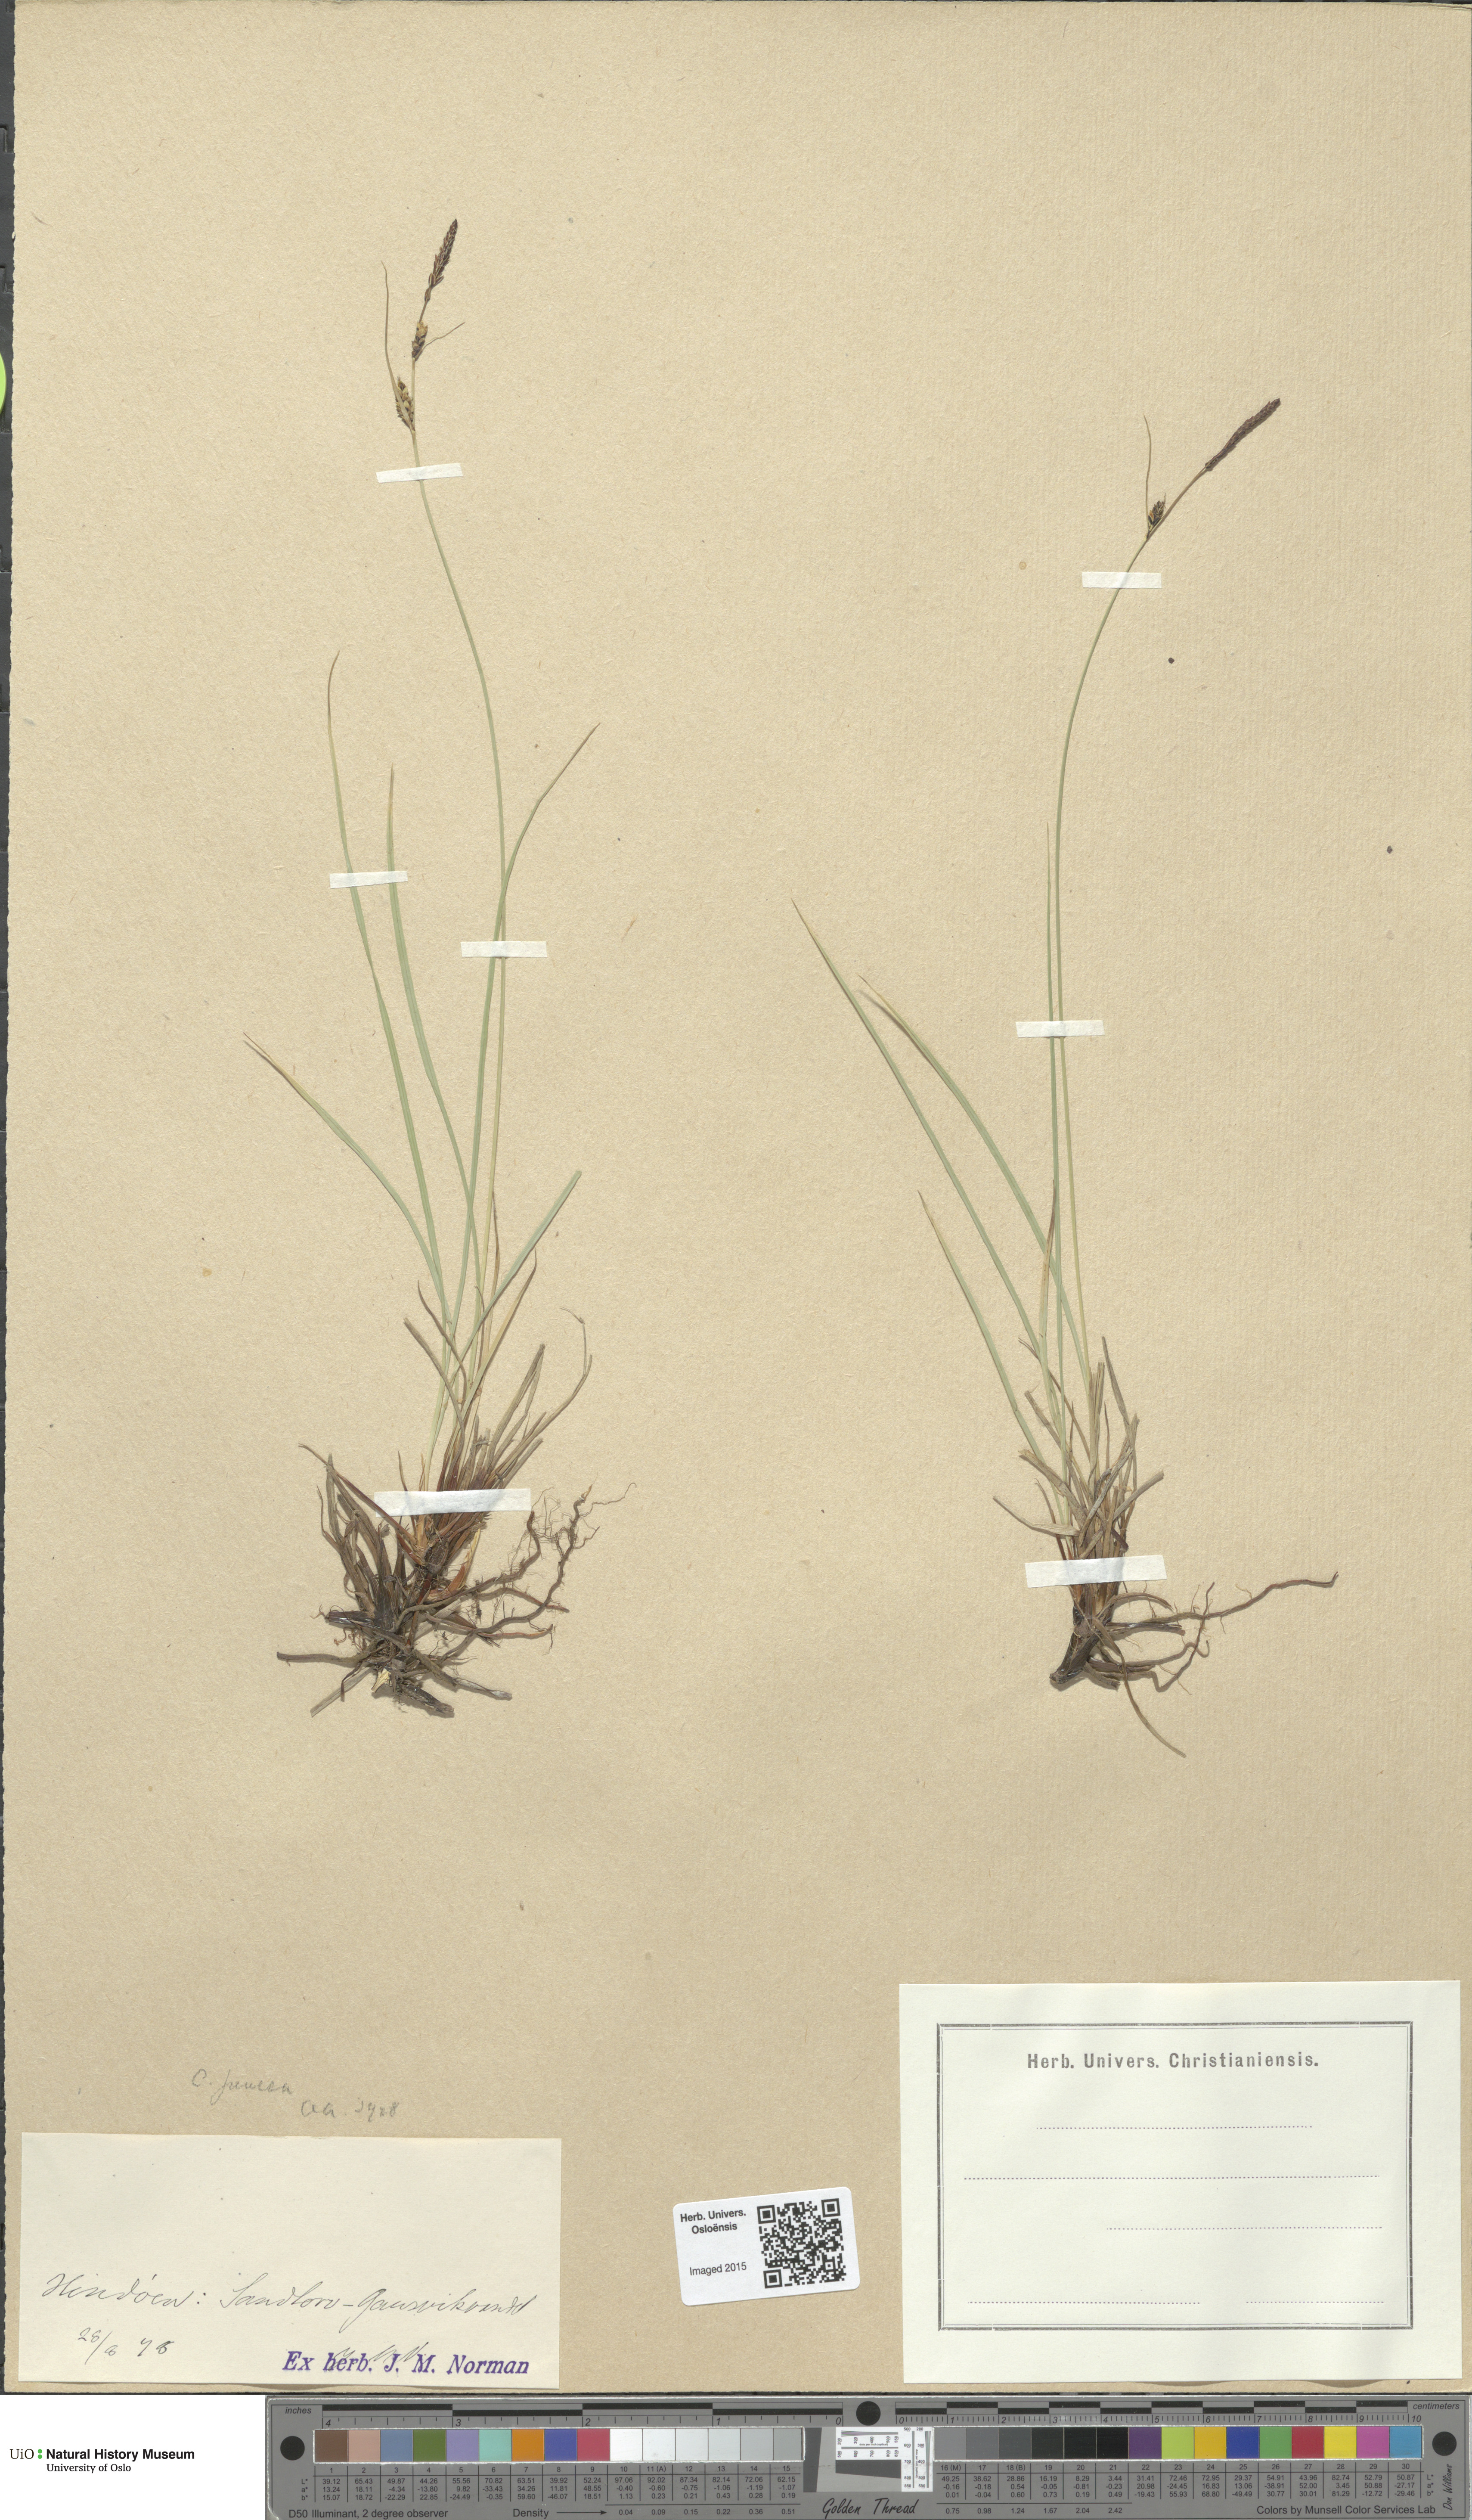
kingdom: Plantae
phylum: Tracheophyta
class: Liliopsida
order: Poales
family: Cyperaceae
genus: Carex
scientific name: Carex nigra
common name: Common sedge
